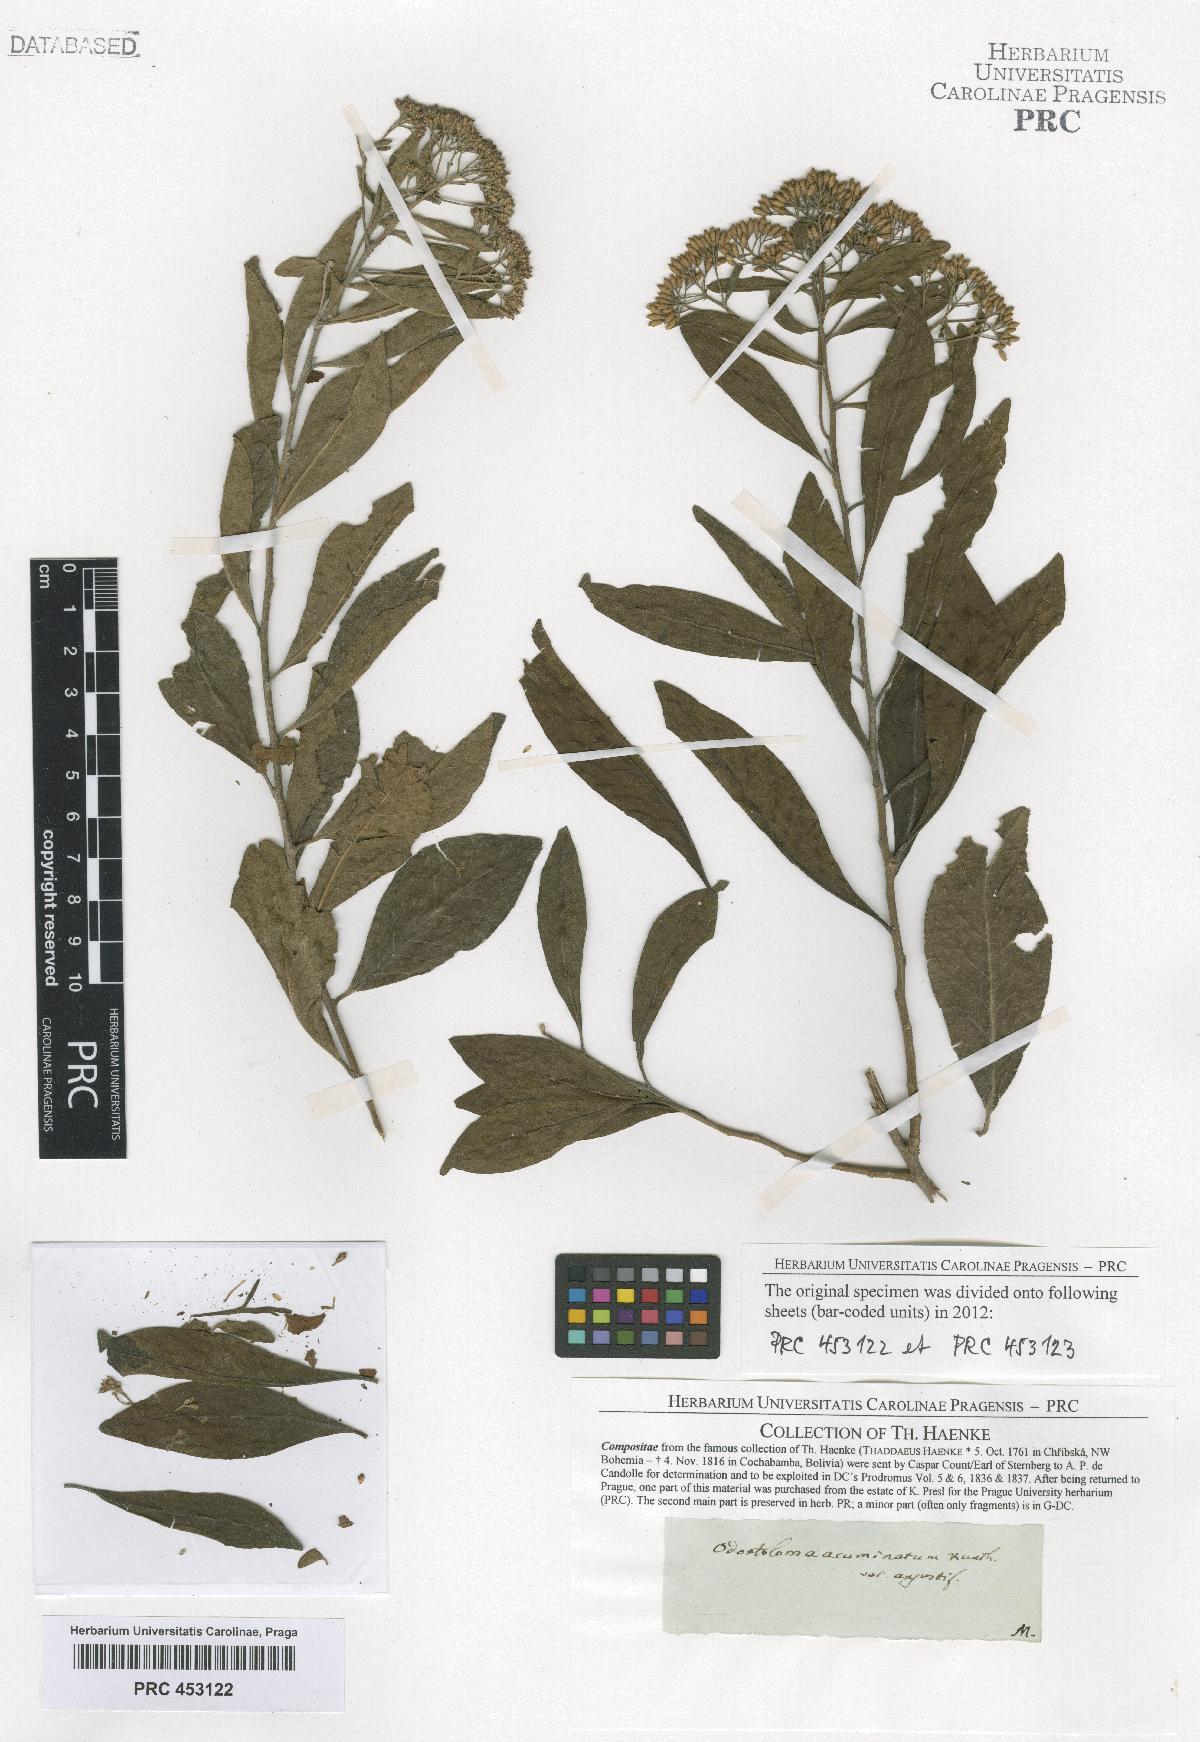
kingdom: Plantae
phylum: Tracheophyta
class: Magnoliopsida
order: Asterales
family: Asteraceae
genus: Piptocoma
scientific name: Piptocoma acuminata
